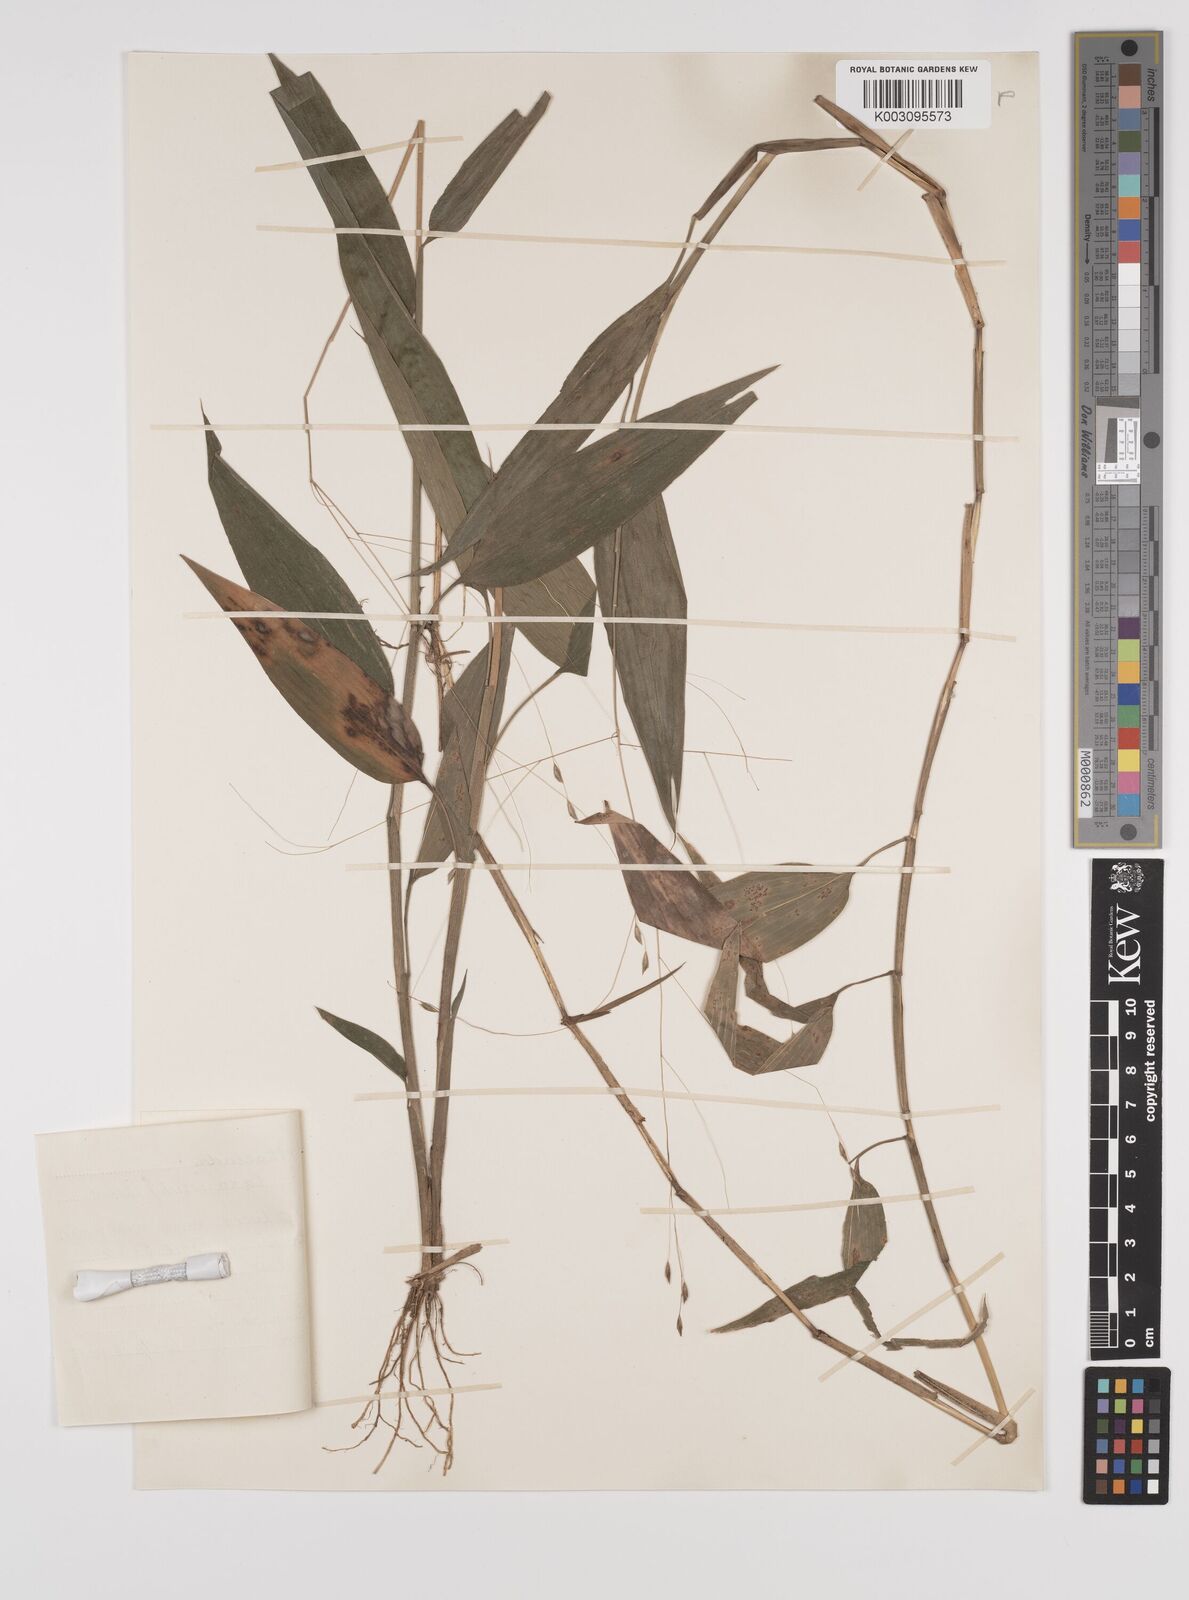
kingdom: Plantae
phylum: Tracheophyta
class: Liliopsida
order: Poales
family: Poaceae
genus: Orthoclada
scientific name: Orthoclada laxa
